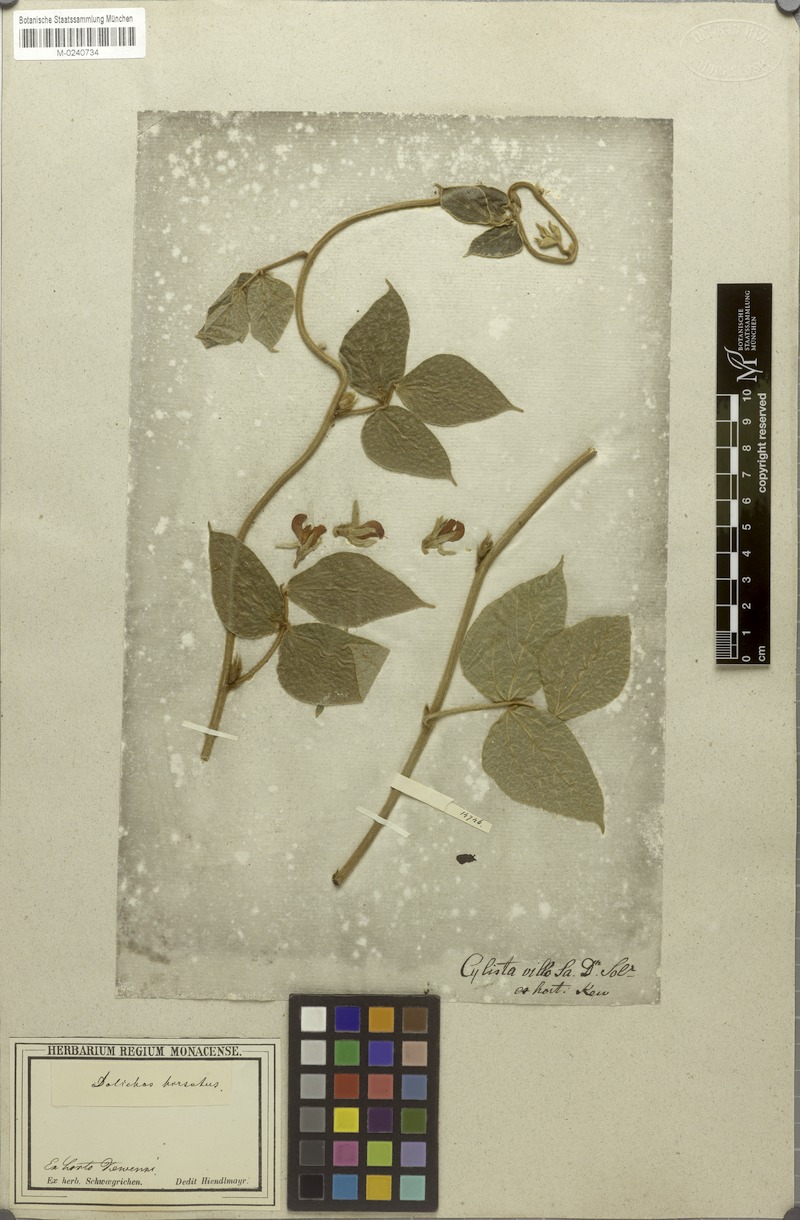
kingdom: Plantae
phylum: Tracheophyta
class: Magnoliopsida
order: Fabales
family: Fabaceae
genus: Rhynchosia
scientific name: Rhynchosia hirta
